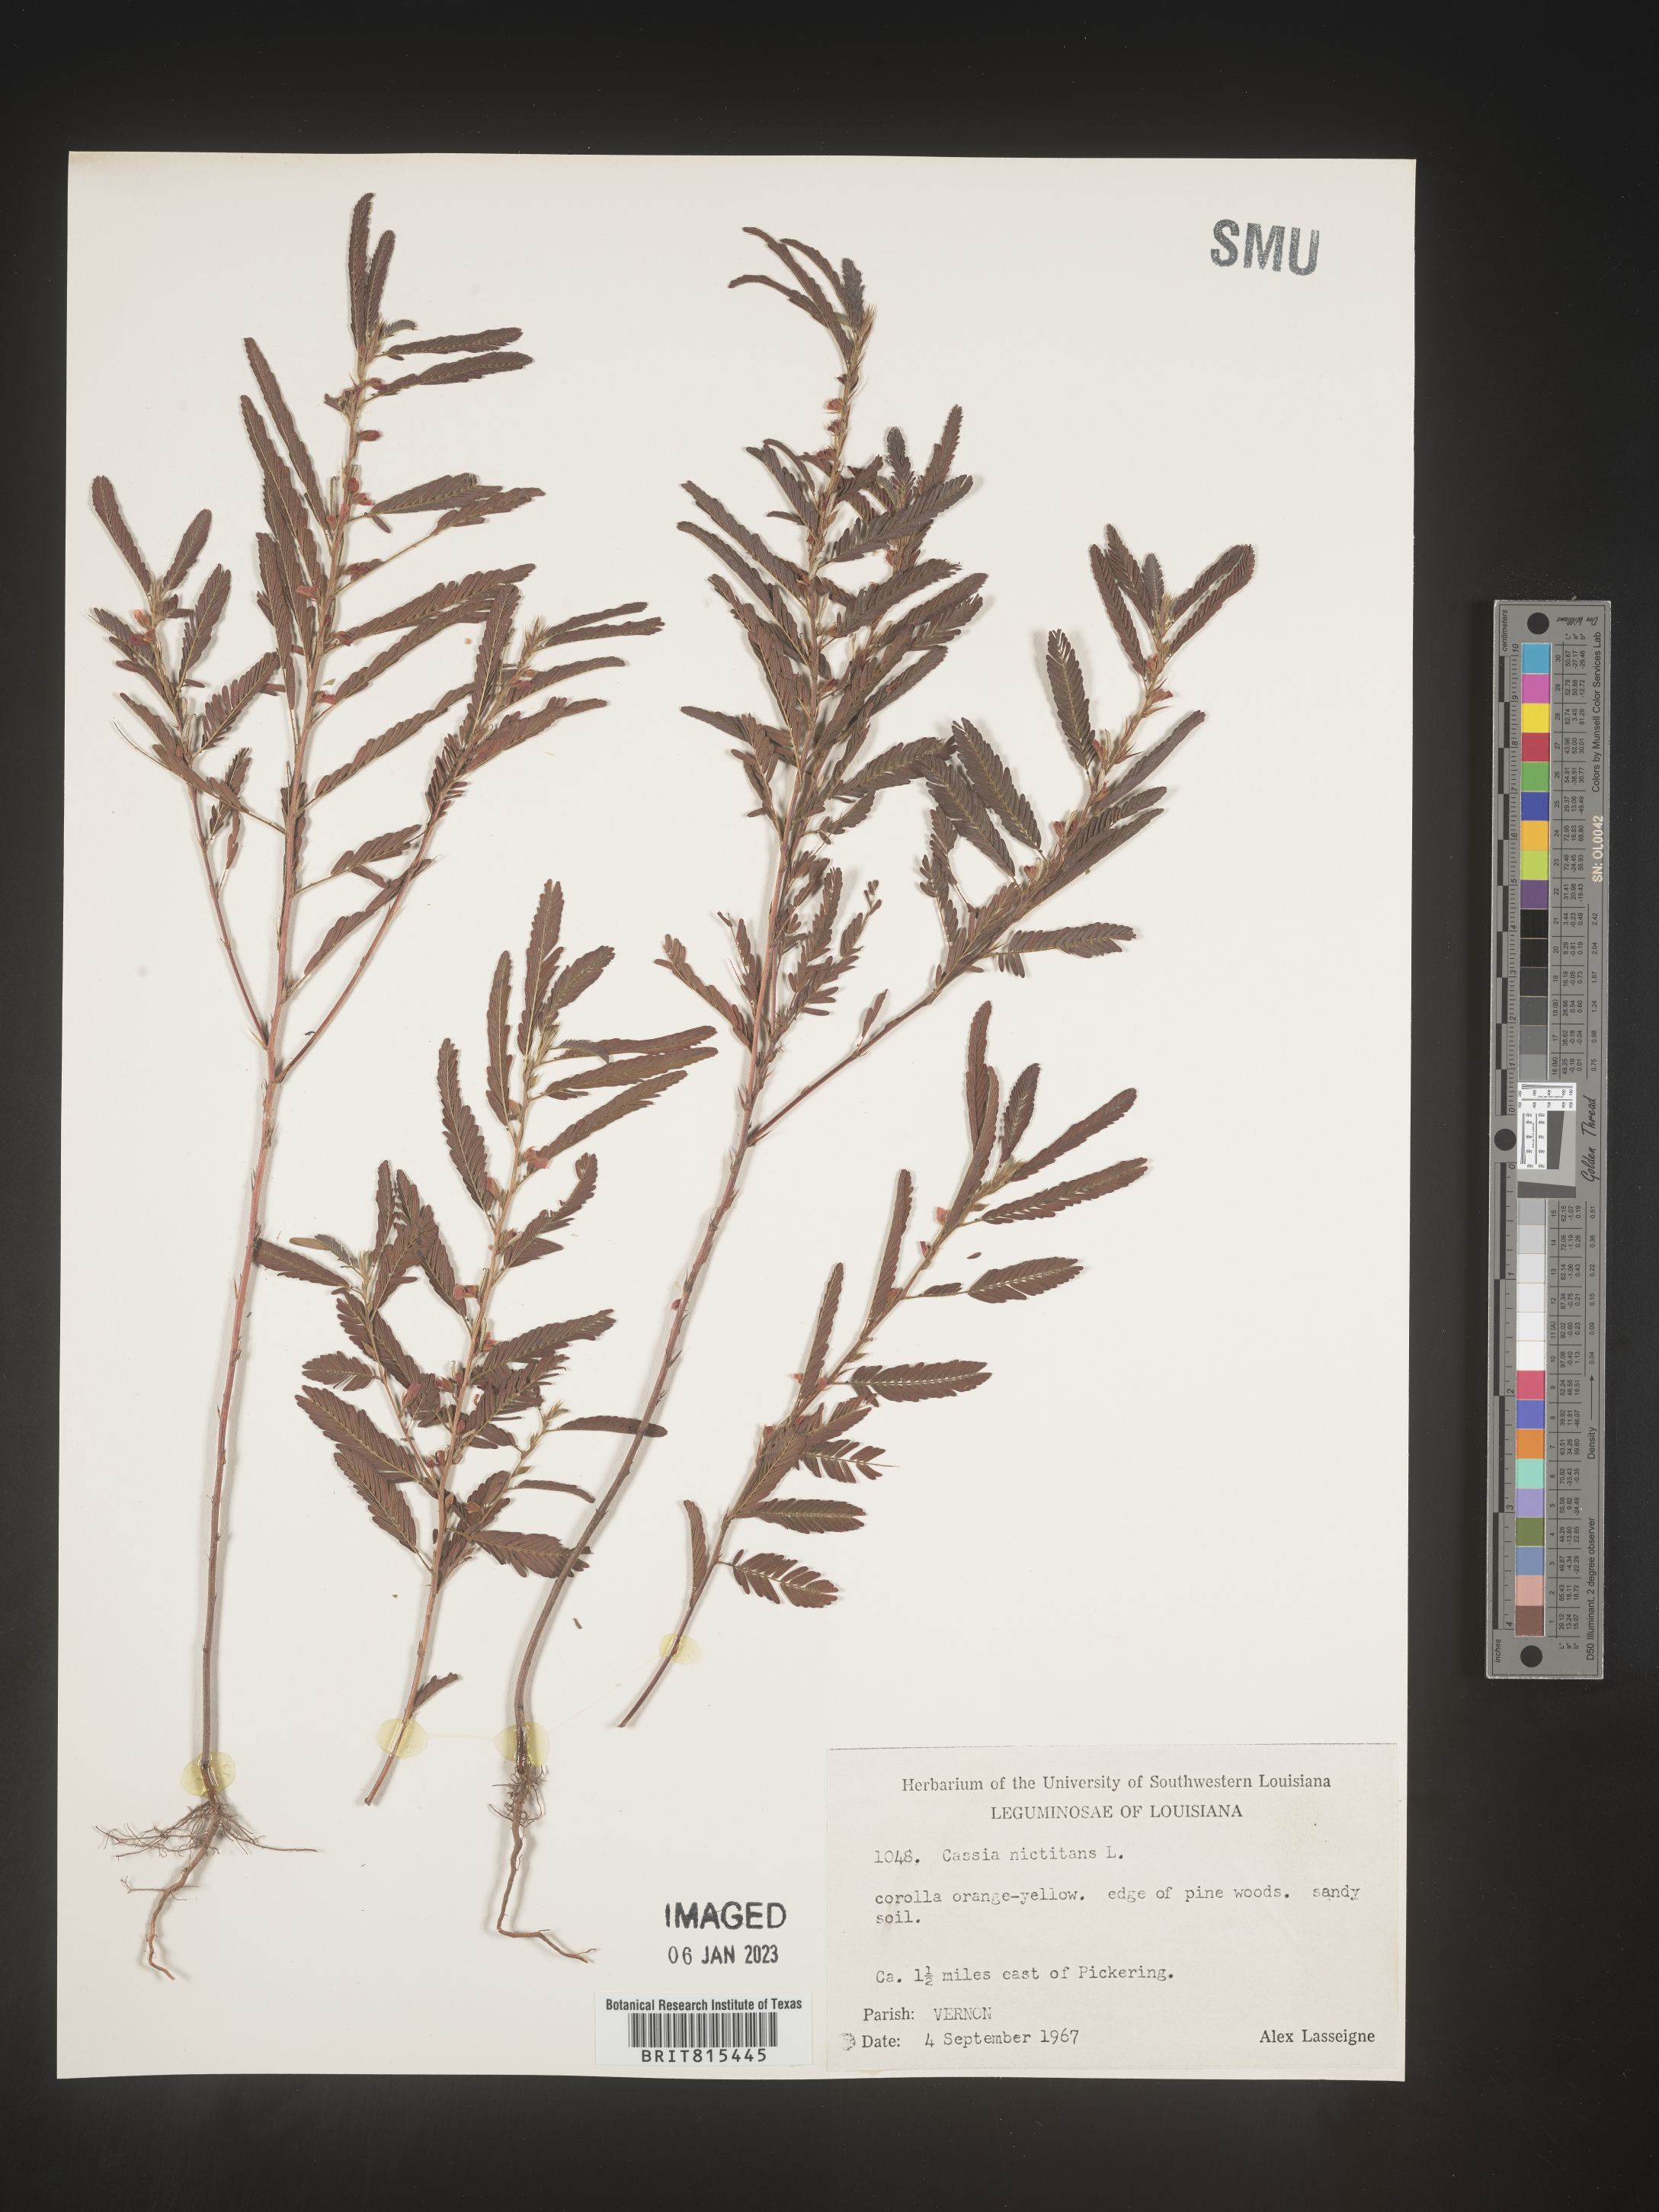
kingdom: Plantae
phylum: Tracheophyta
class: Magnoliopsida
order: Fabales
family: Fabaceae
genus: Chamaecrista
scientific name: Chamaecrista nictitans
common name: Sensitive cassia
